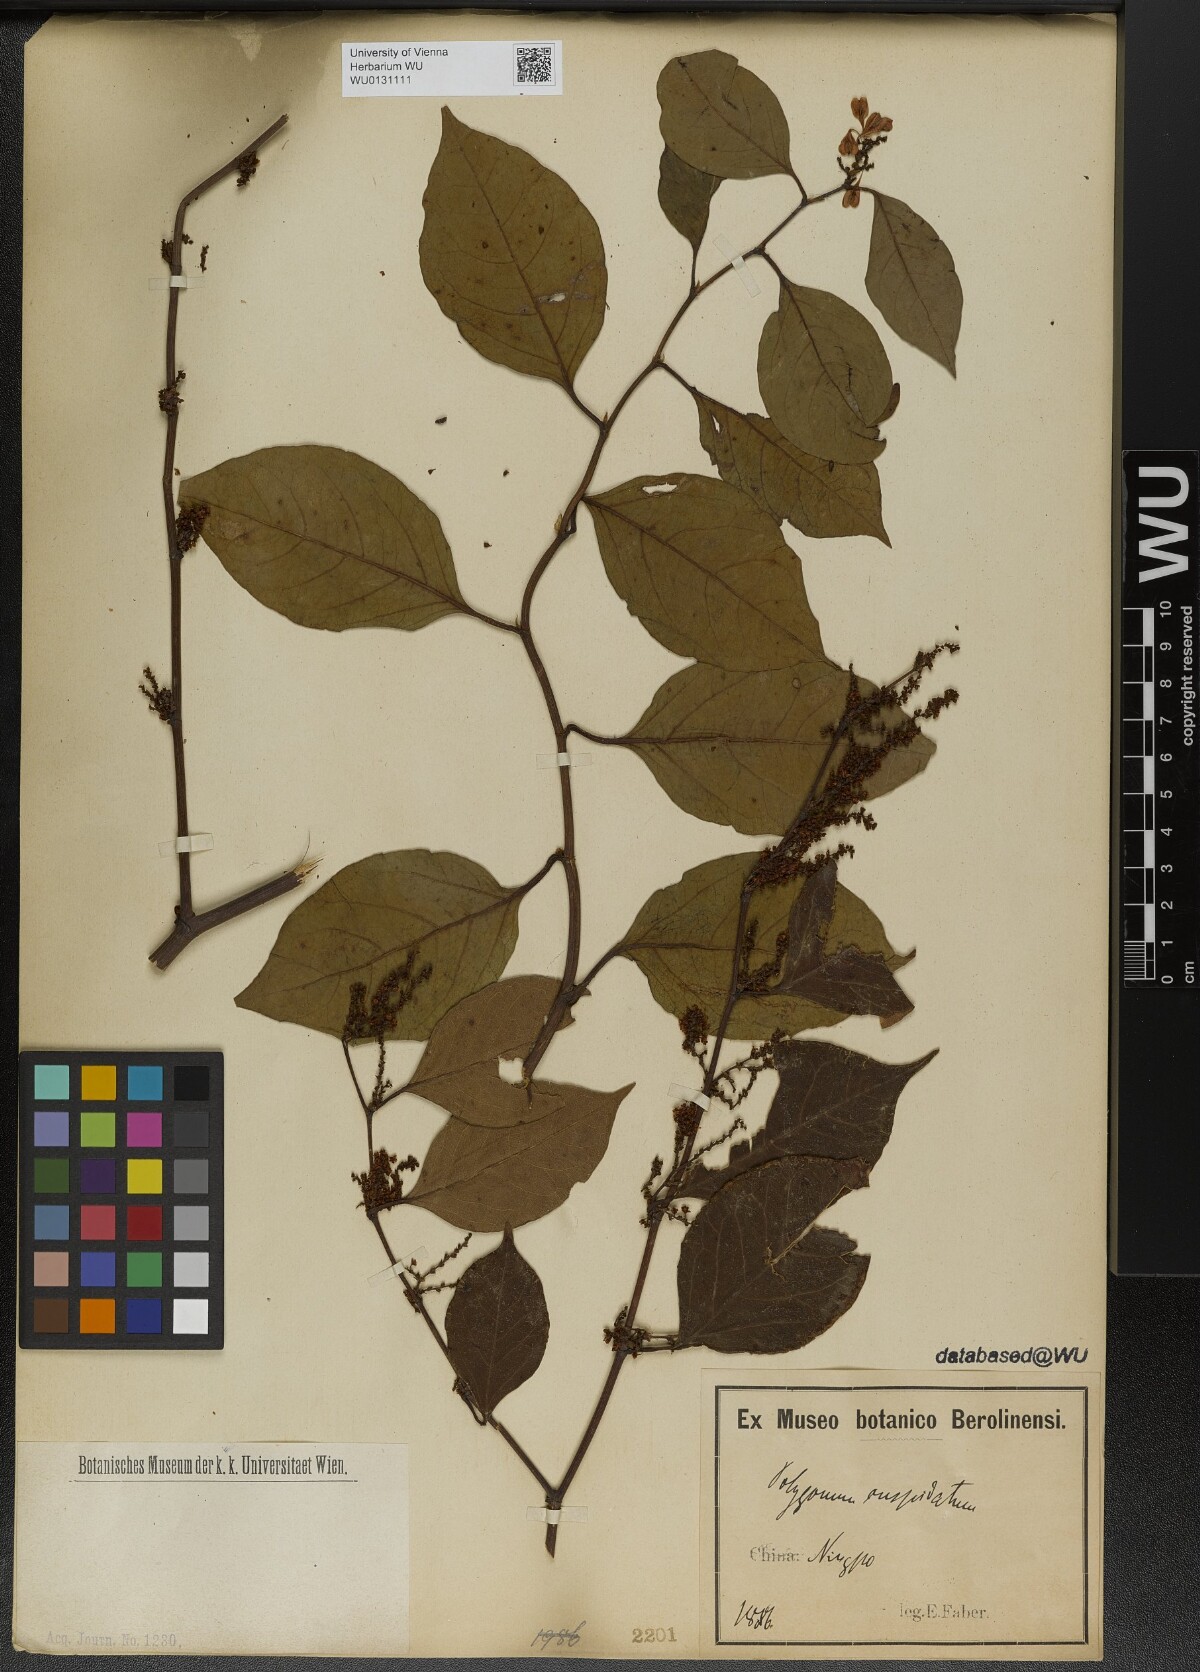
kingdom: Plantae
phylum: Tracheophyta
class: Magnoliopsida
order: Caryophyllales
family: Polygonaceae
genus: Reynoutria
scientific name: Reynoutria japonica
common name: Japanese knotweed
